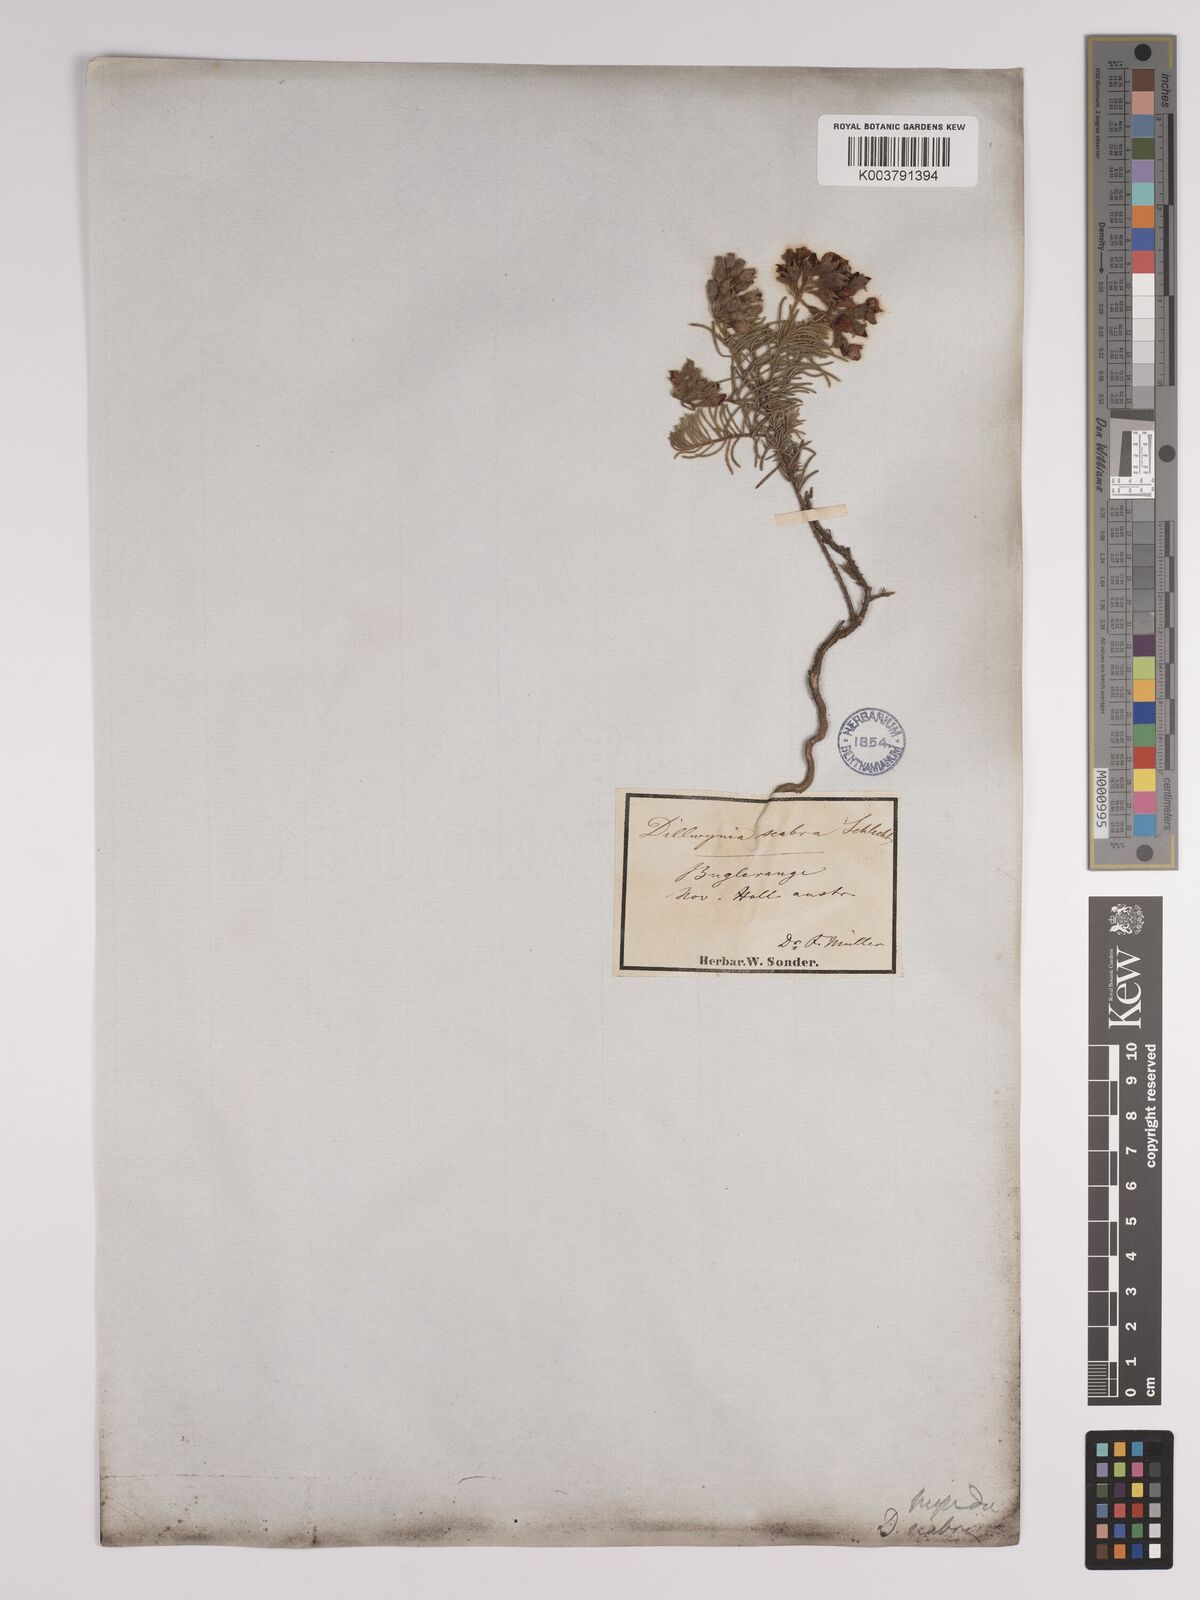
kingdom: Plantae
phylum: Tracheophyta
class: Magnoliopsida
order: Fabales
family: Fabaceae
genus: Dillwynia
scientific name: Dillwynia hispida
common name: Red parrot-pea
